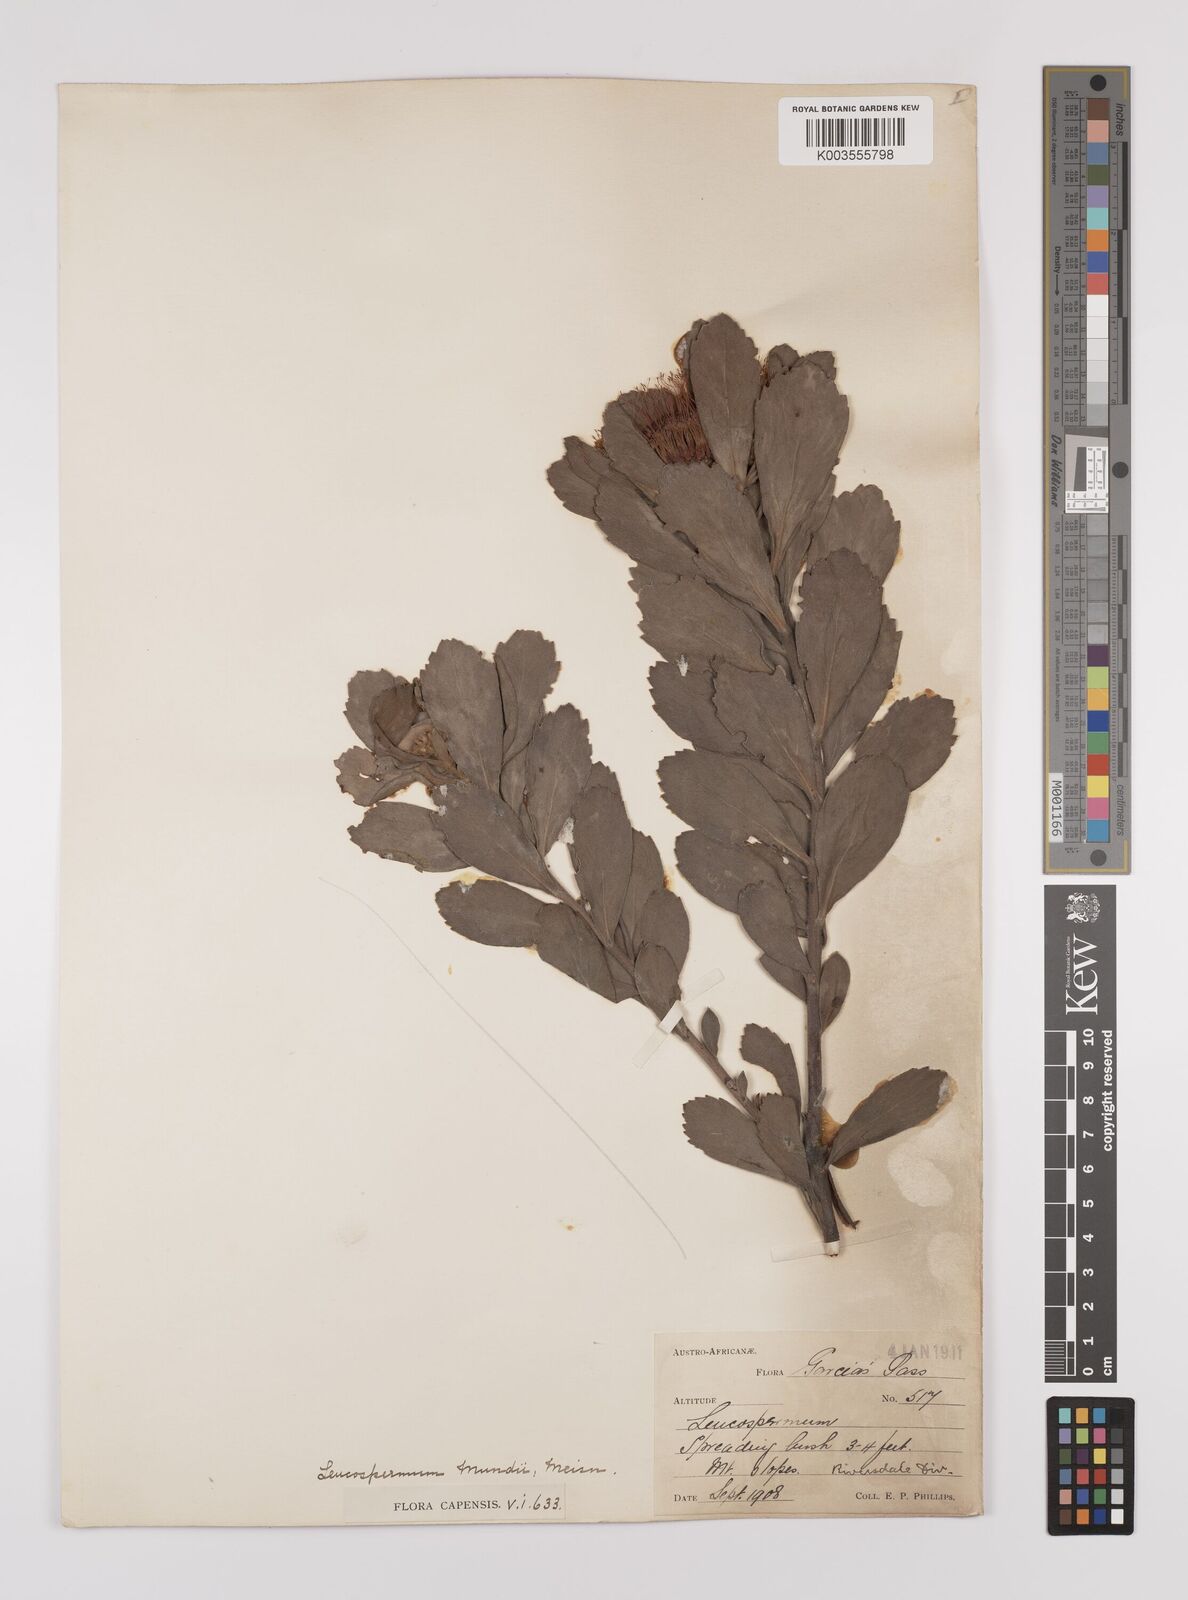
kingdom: Plantae
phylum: Tracheophyta
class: Magnoliopsida
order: Proteales
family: Proteaceae
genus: Leucospermum
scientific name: Leucospermum mundii
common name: Langeberg pincushion
